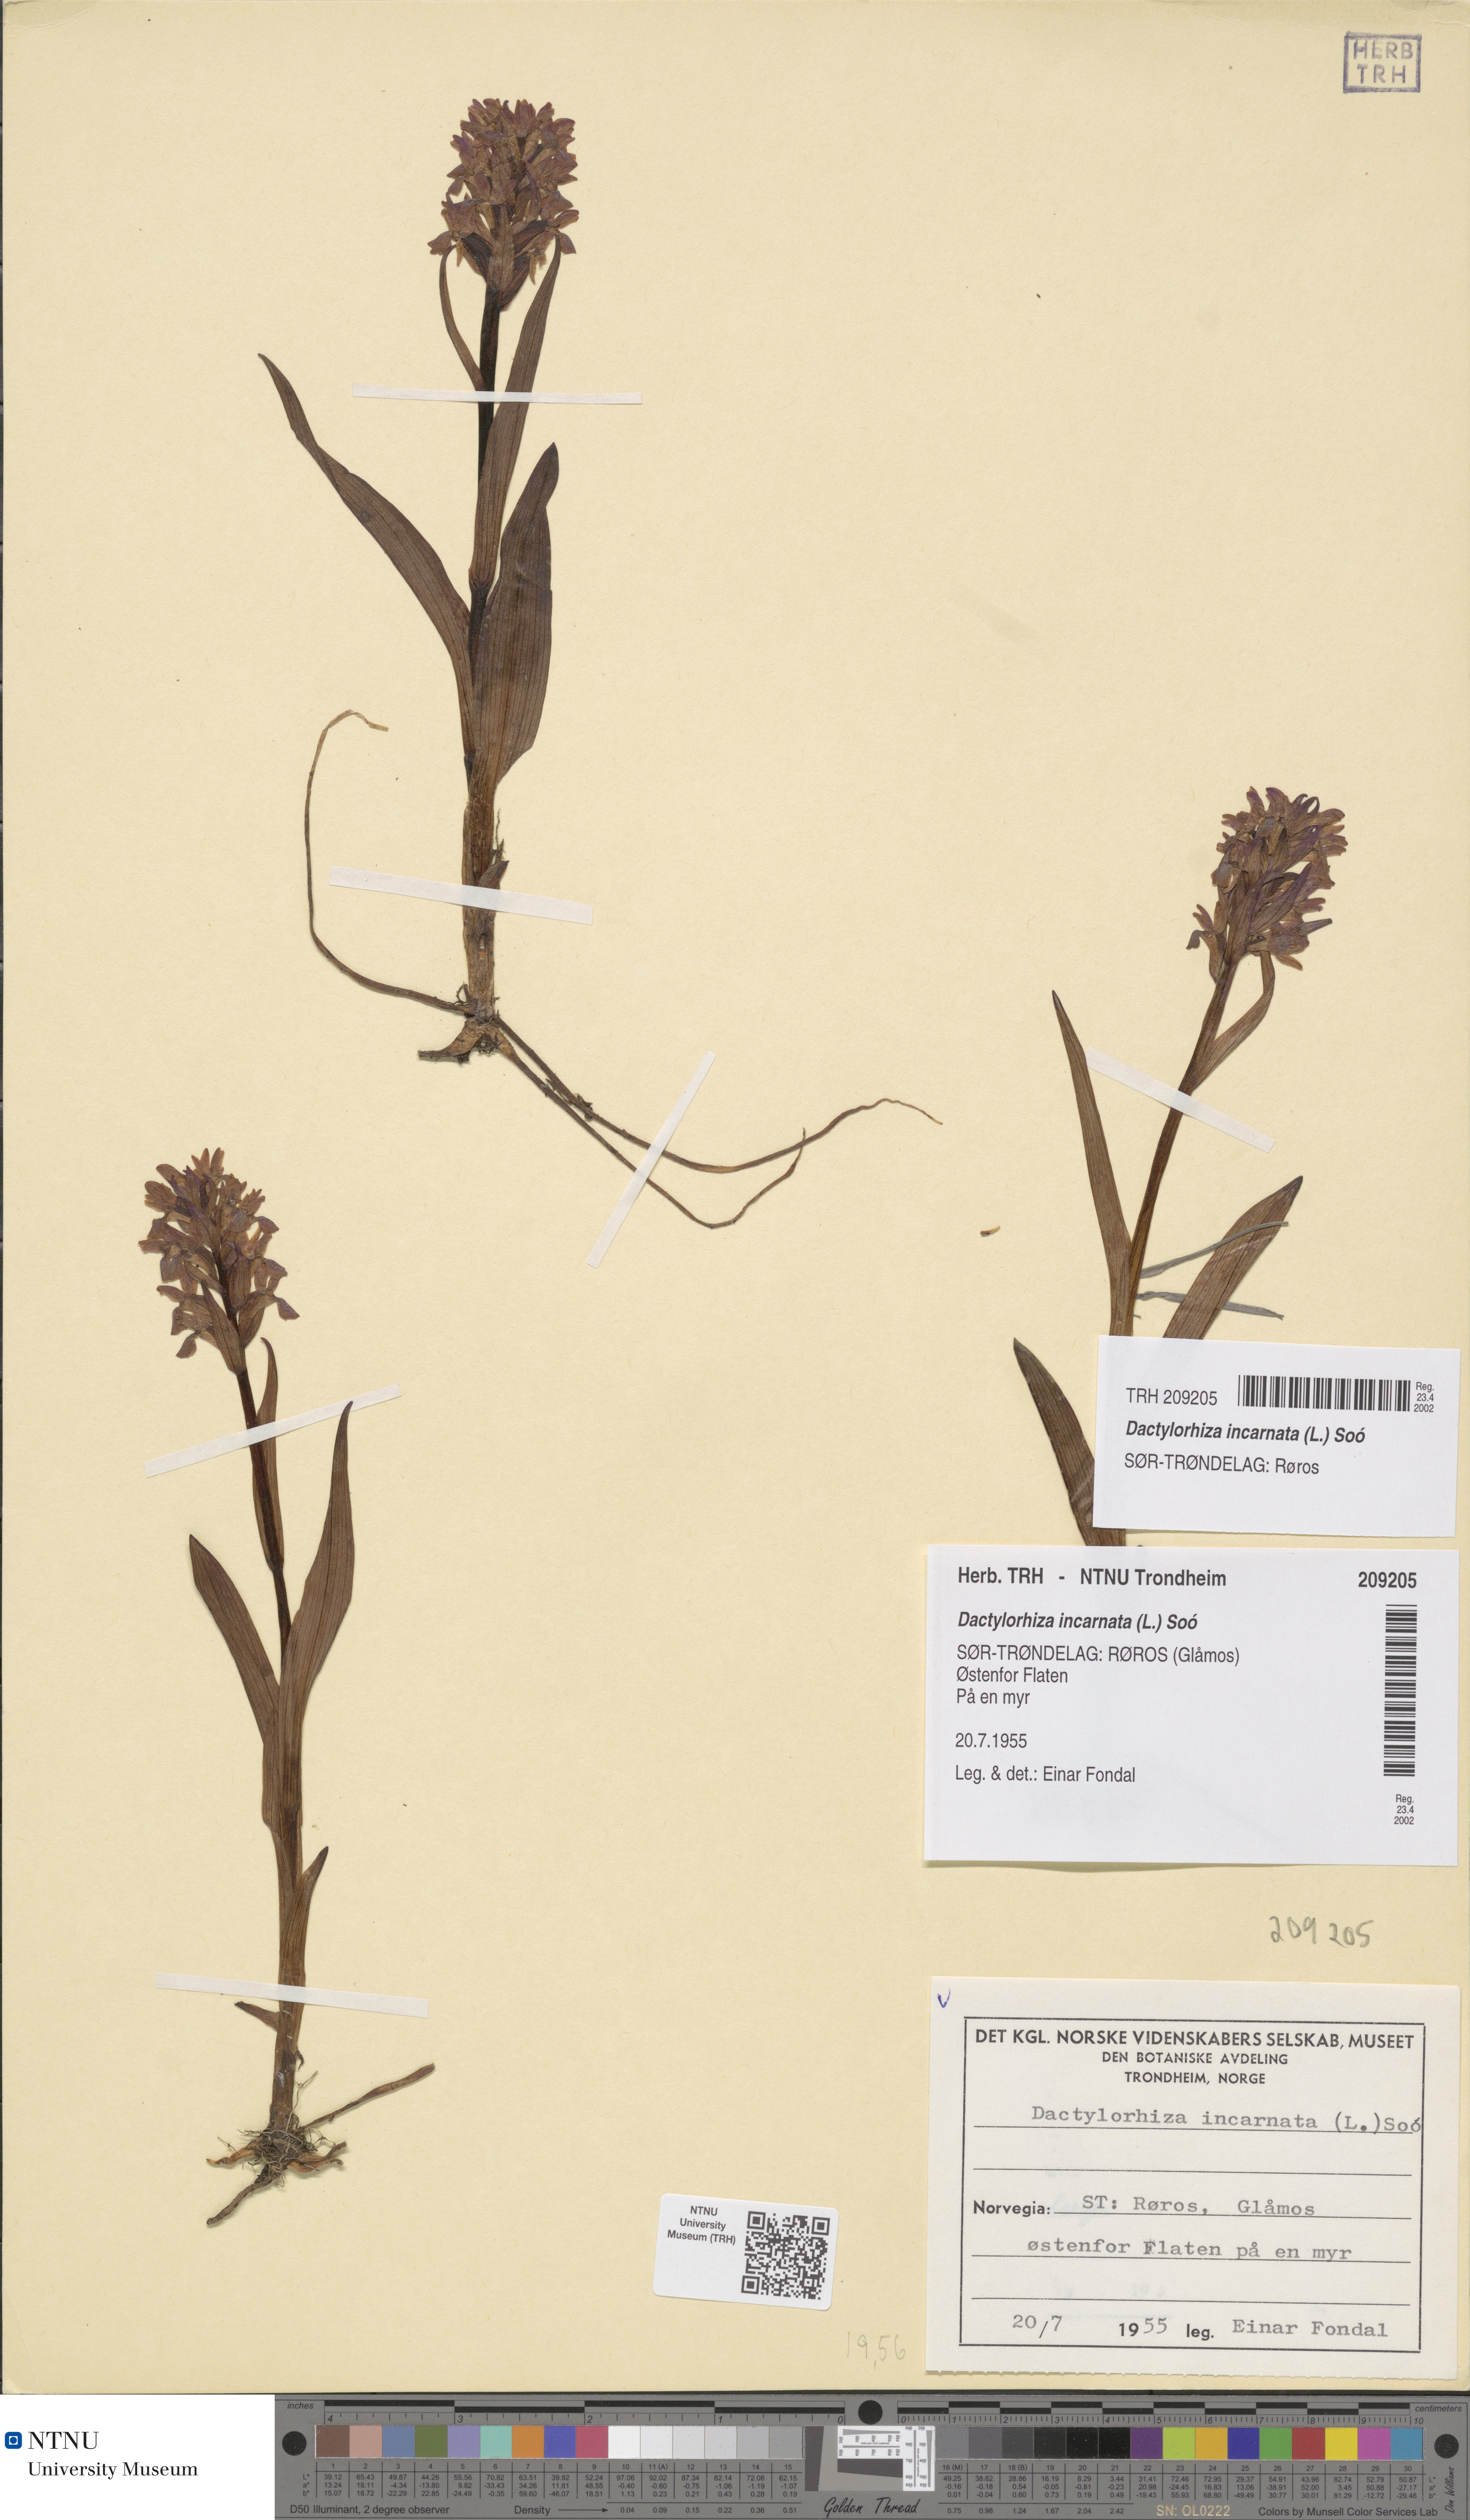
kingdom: Plantae
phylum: Tracheophyta
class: Liliopsida
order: Asparagales
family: Orchidaceae
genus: Dactylorhiza
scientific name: Dactylorhiza incarnata
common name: Early marsh-orchid
